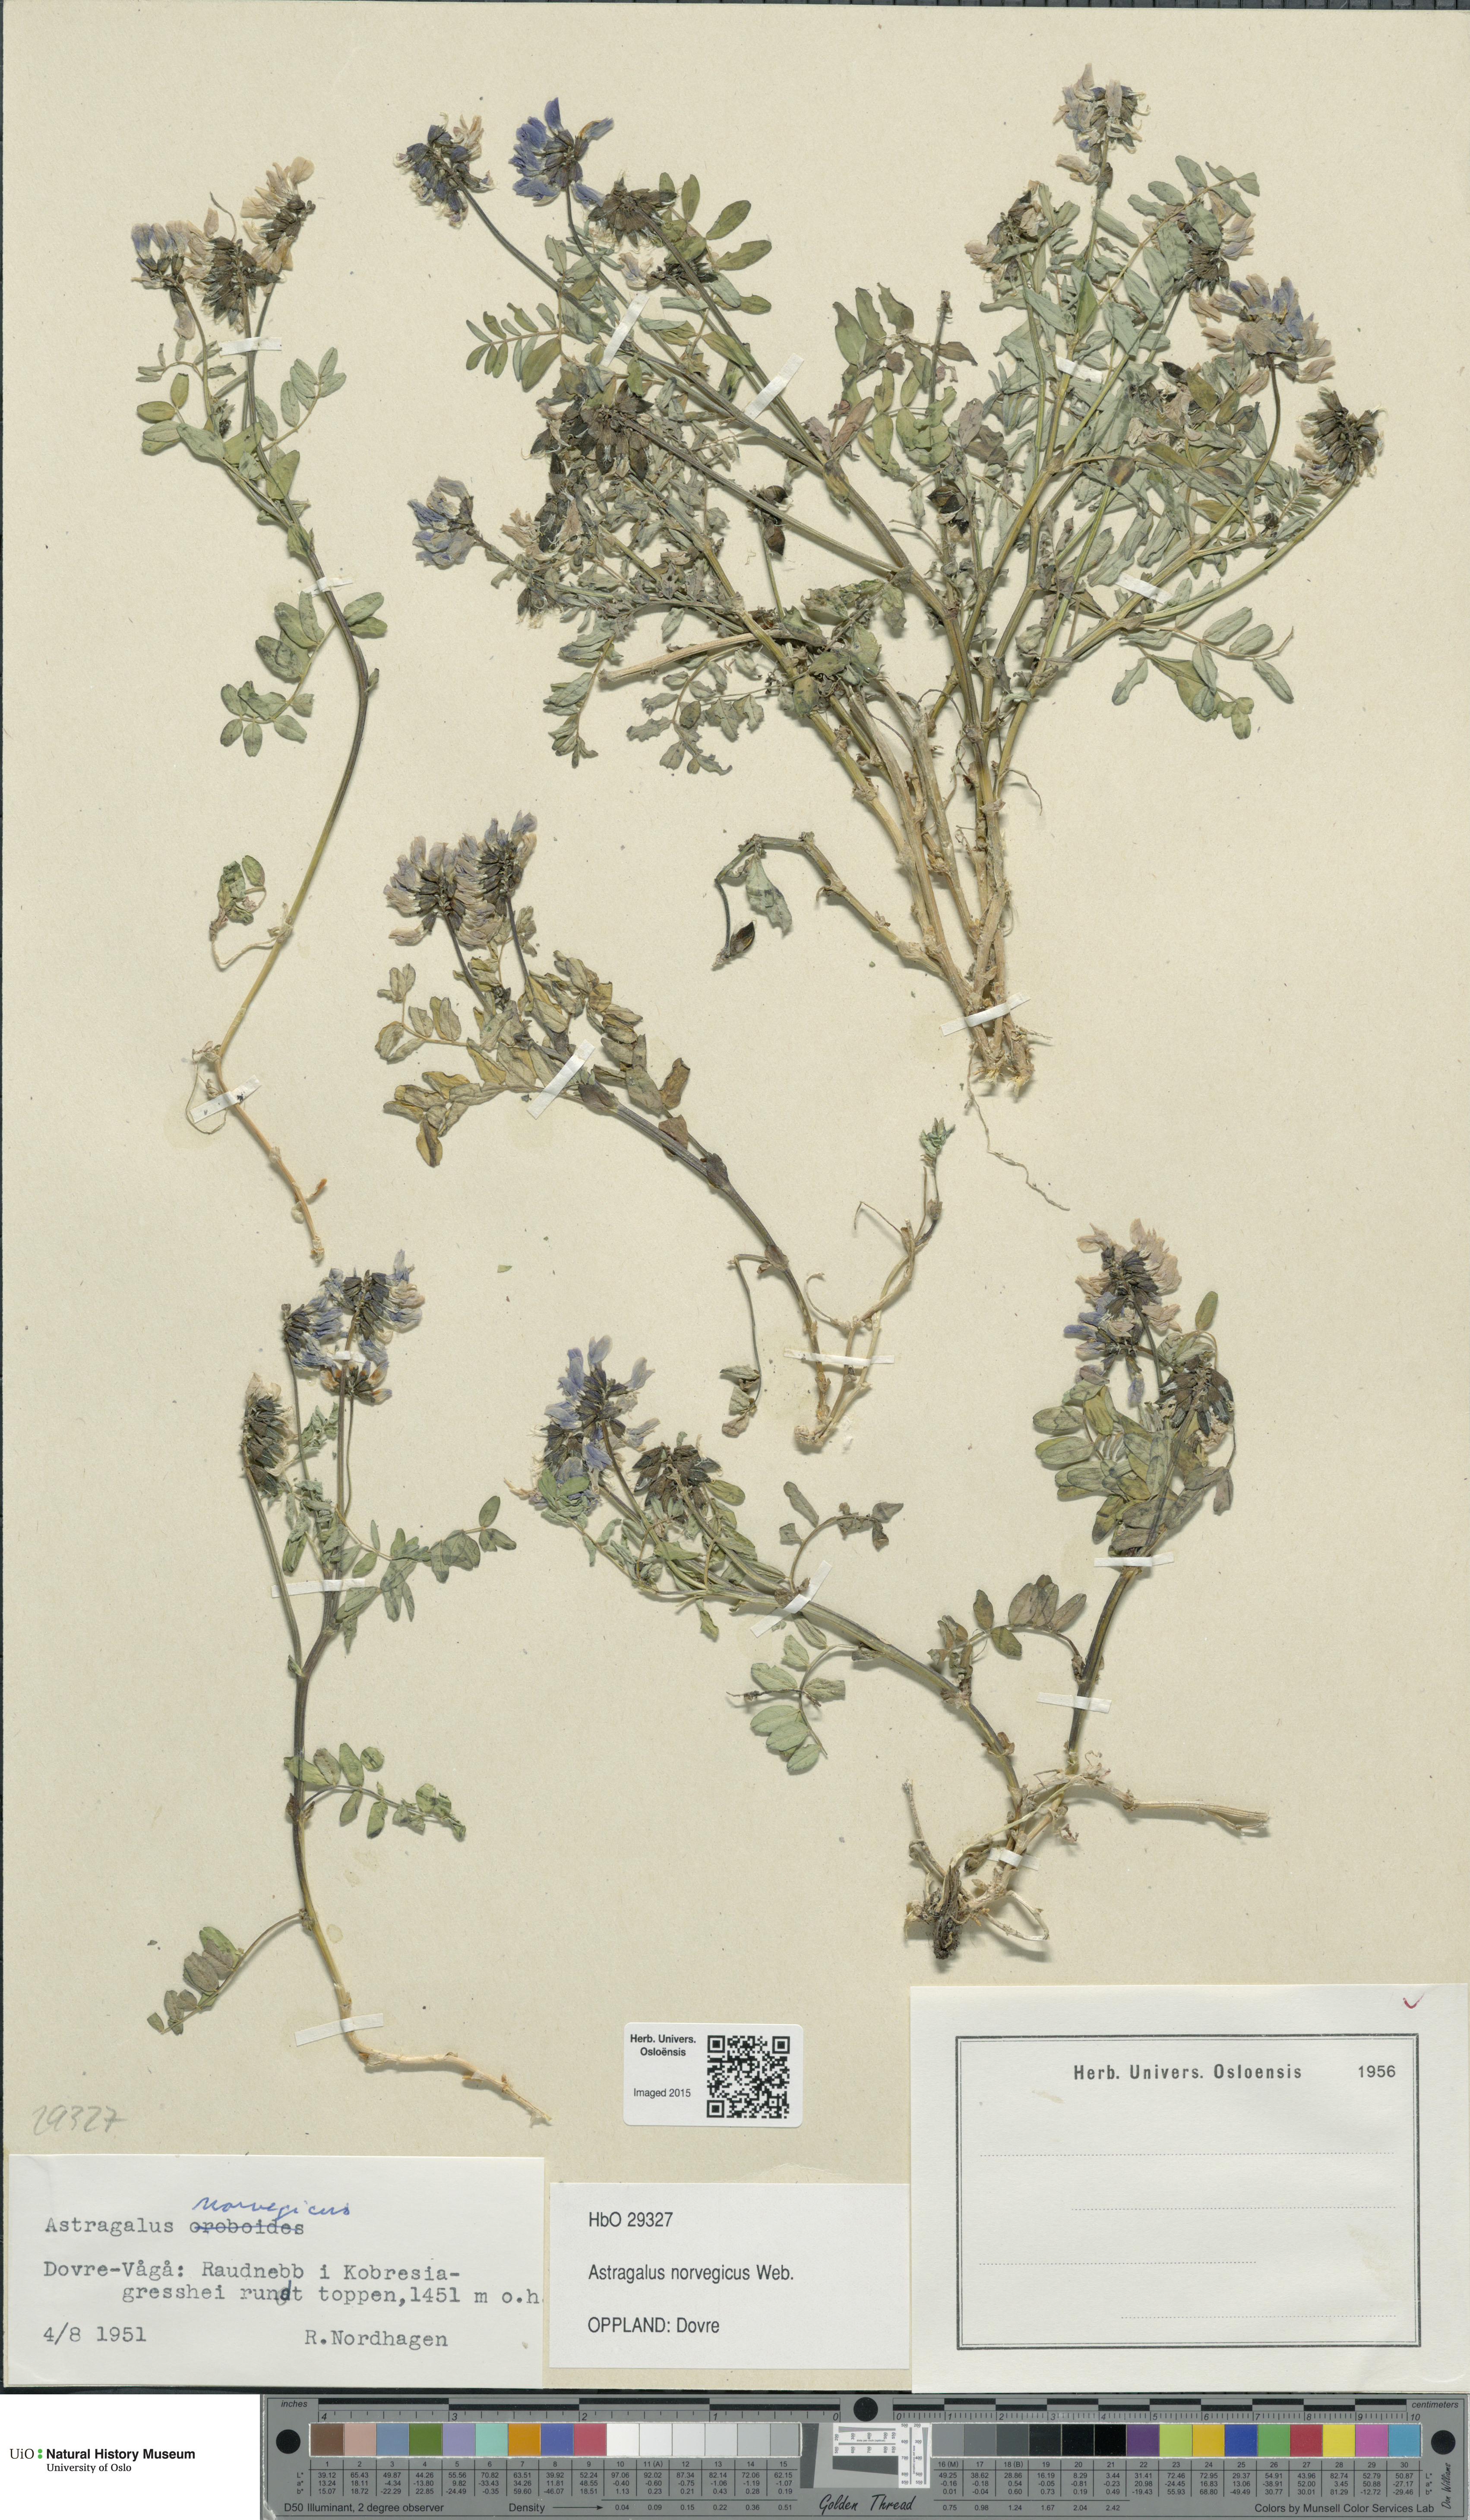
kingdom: Plantae
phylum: Tracheophyta
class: Magnoliopsida
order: Fabales
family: Fabaceae
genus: Astragalus
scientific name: Astragalus norvegicus
